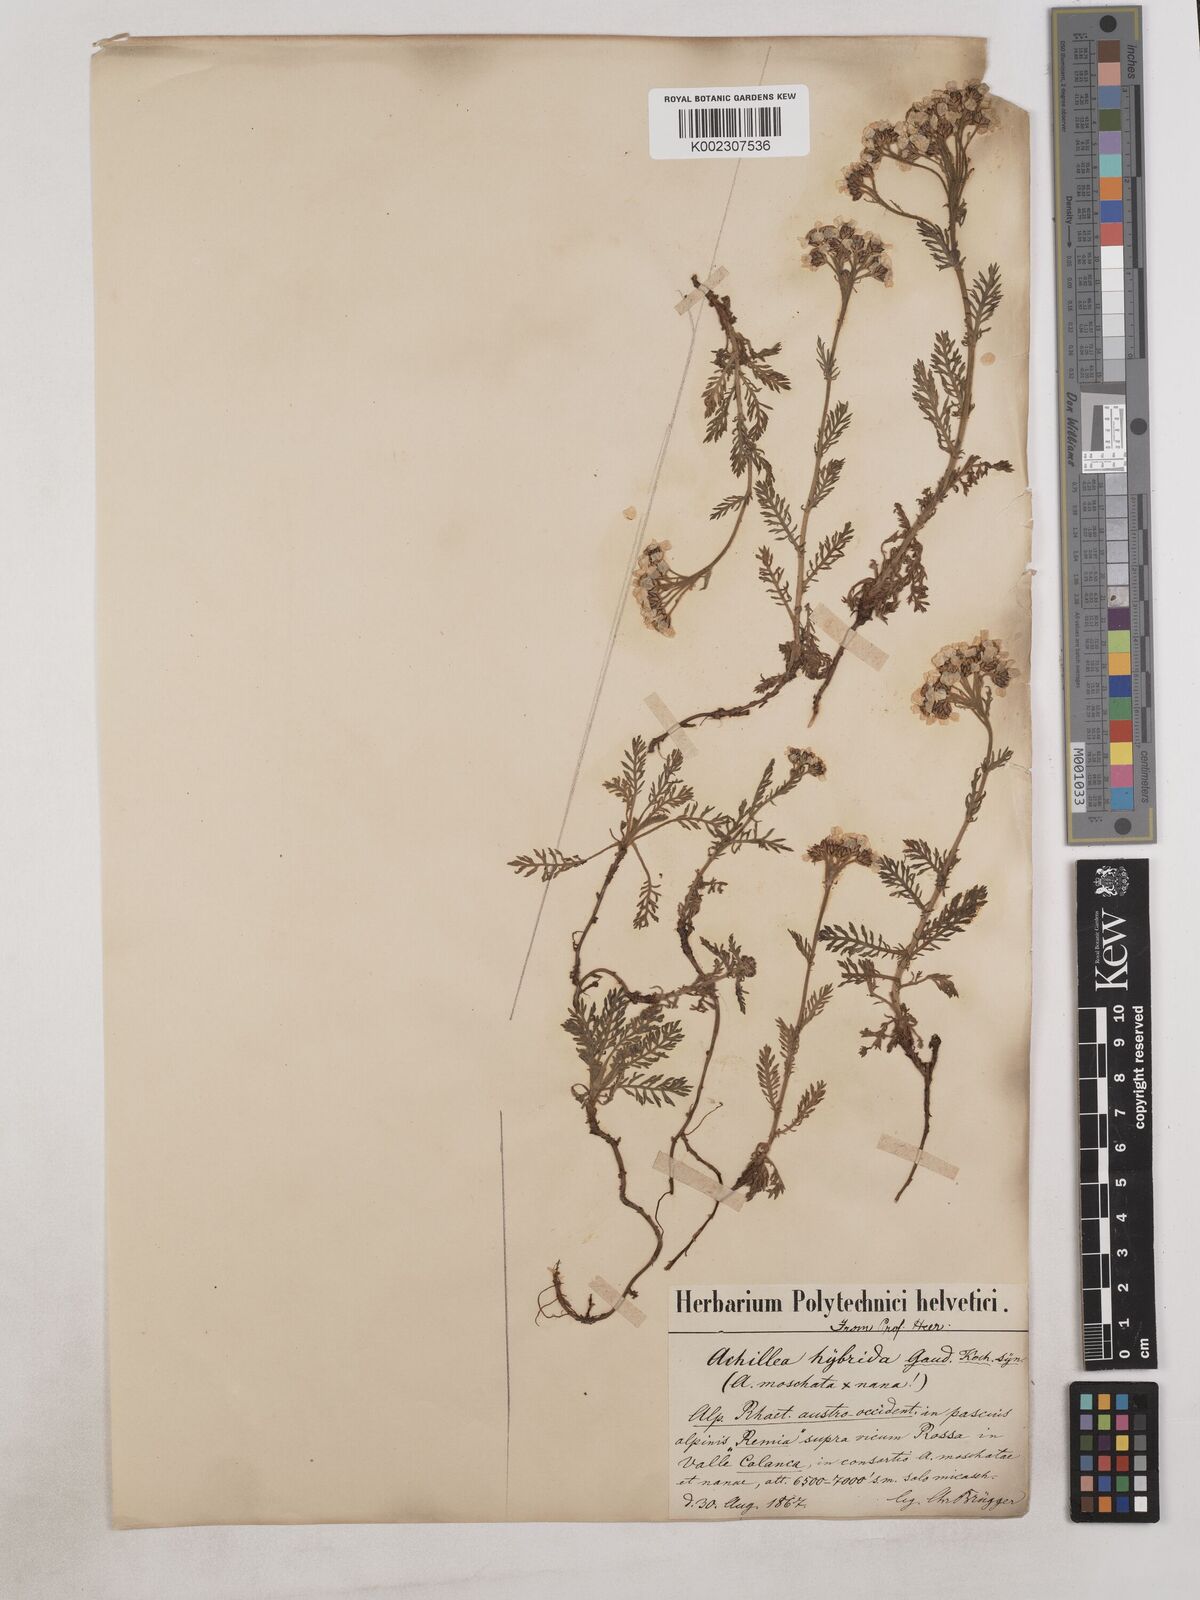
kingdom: Plantae
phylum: Tracheophyta
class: Magnoliopsida
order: Asterales
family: Asteraceae
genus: Achillea
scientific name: Achillea erba-rotta
